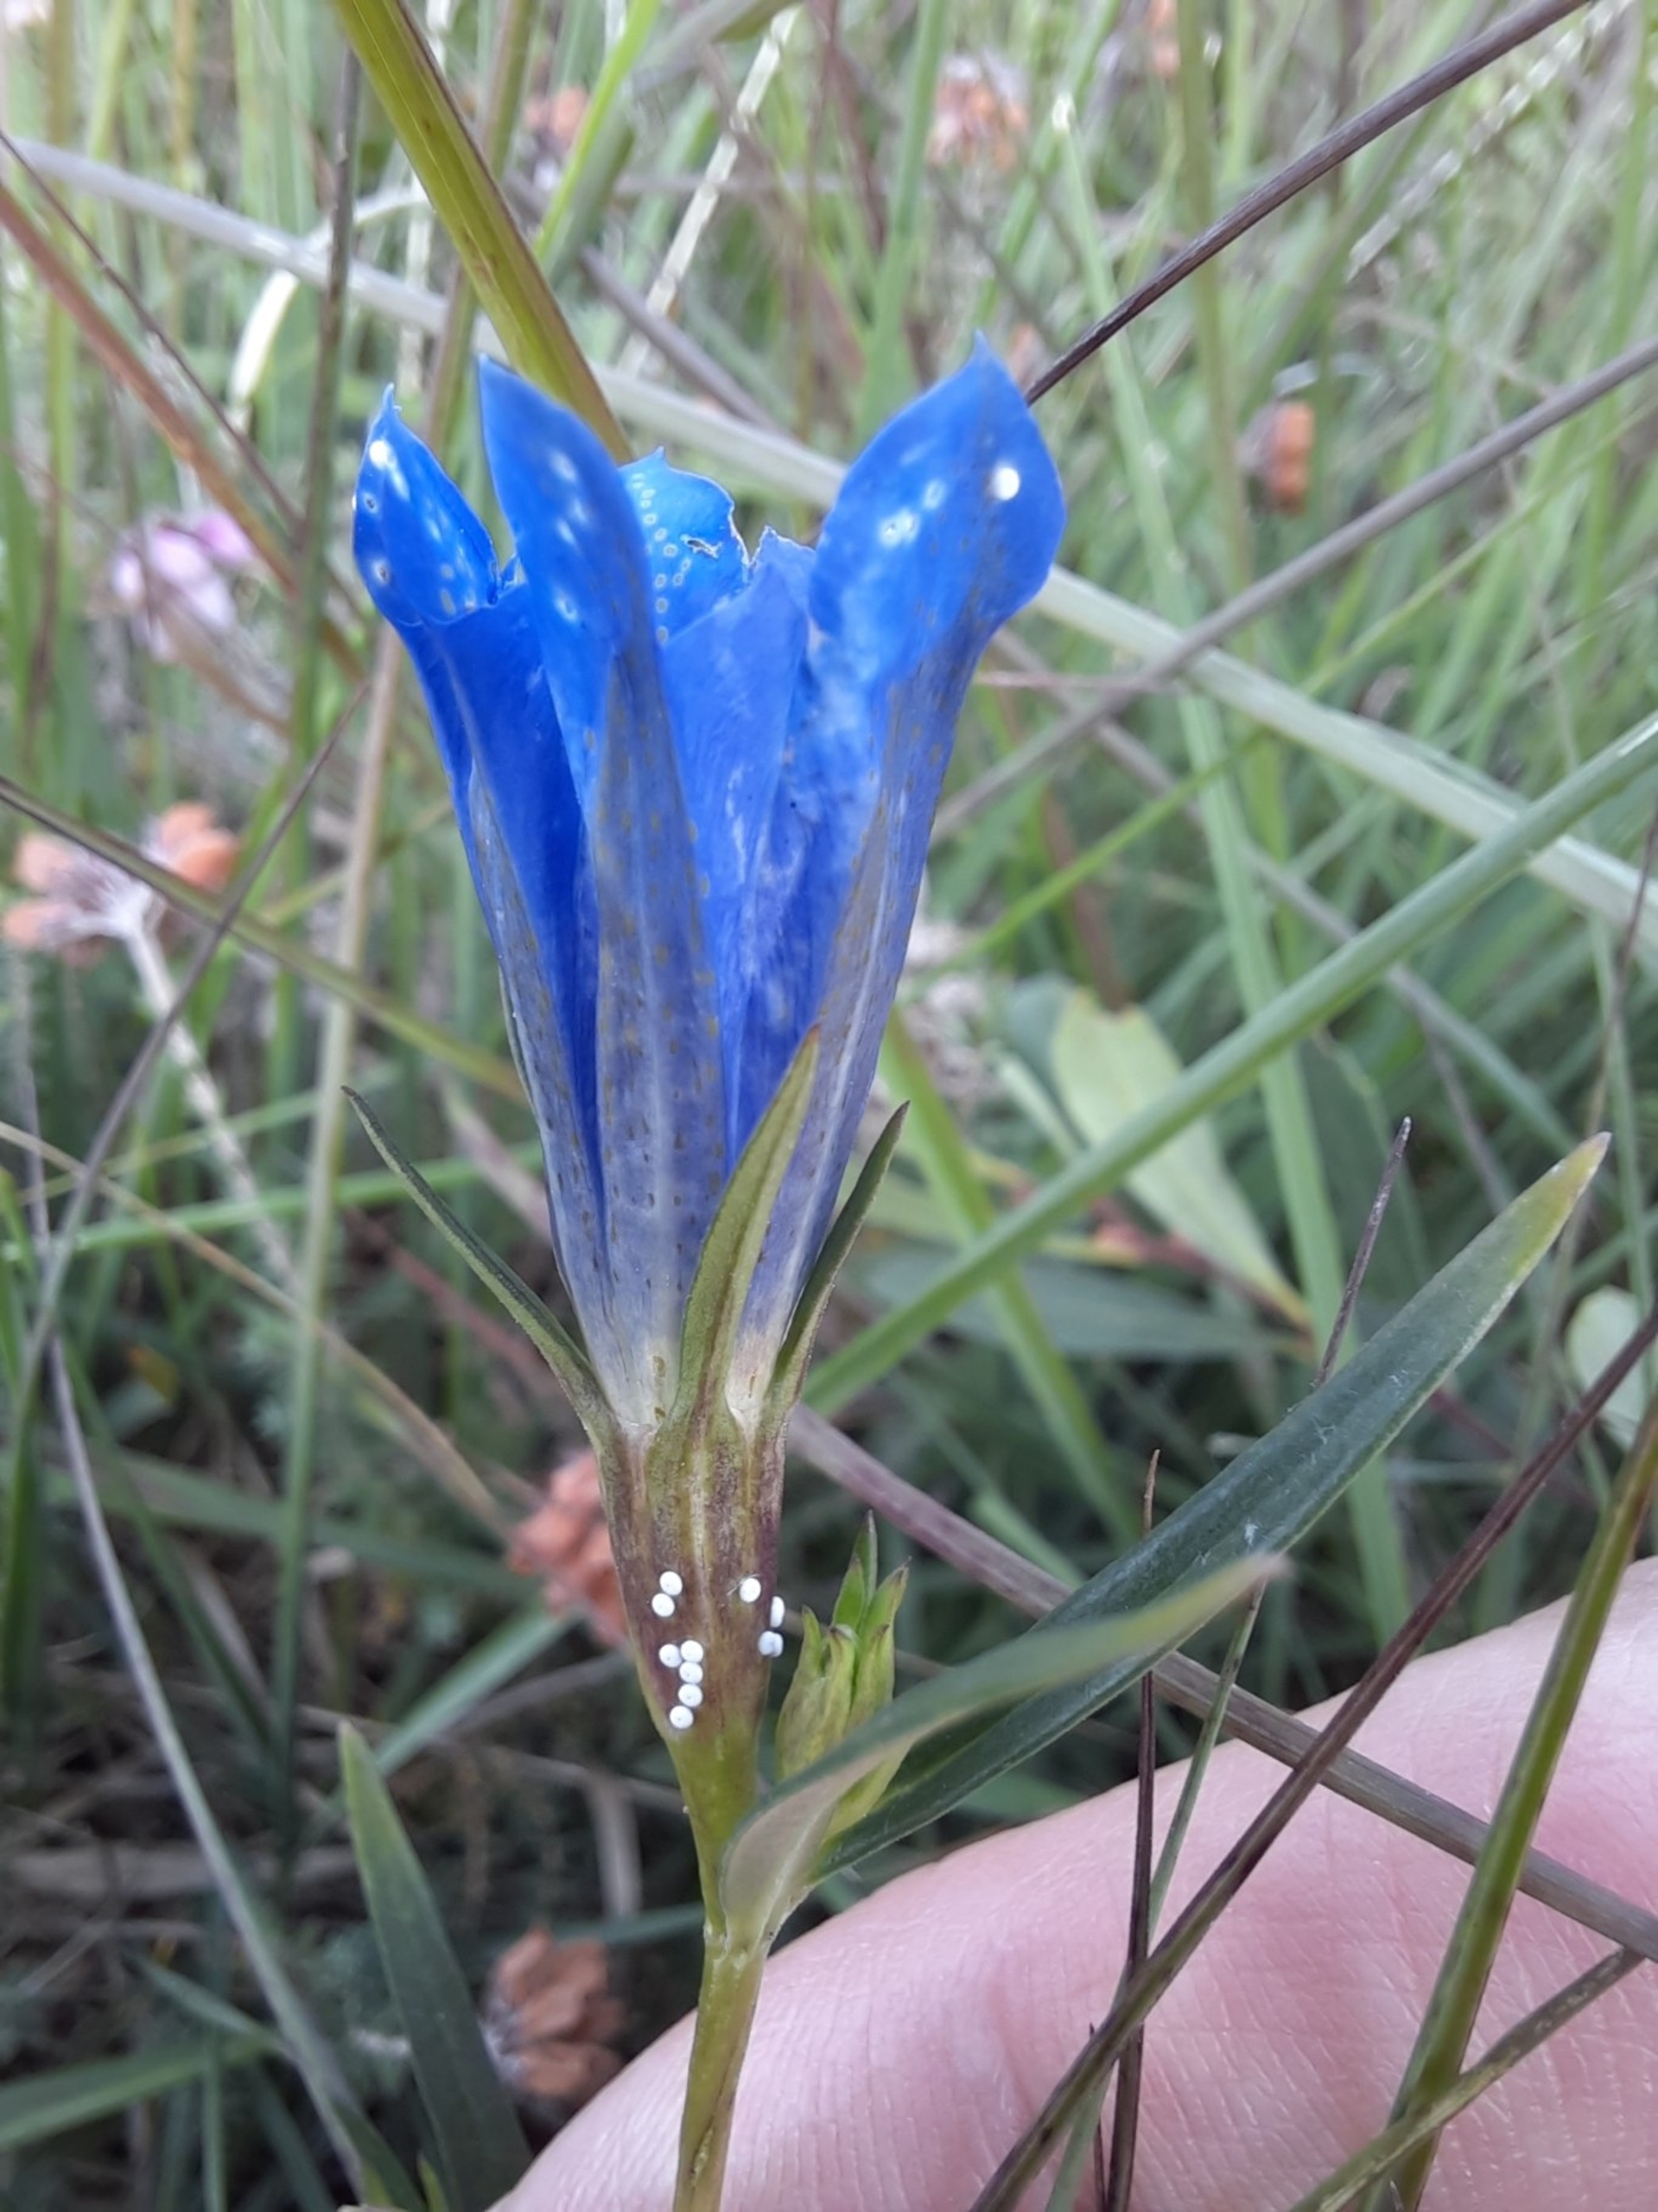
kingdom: Plantae
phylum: Tracheophyta
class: Magnoliopsida
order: Gentianales
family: Gentianaceae
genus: Gentiana
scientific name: Gentiana pneumonanthe
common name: Klokke-ensian
